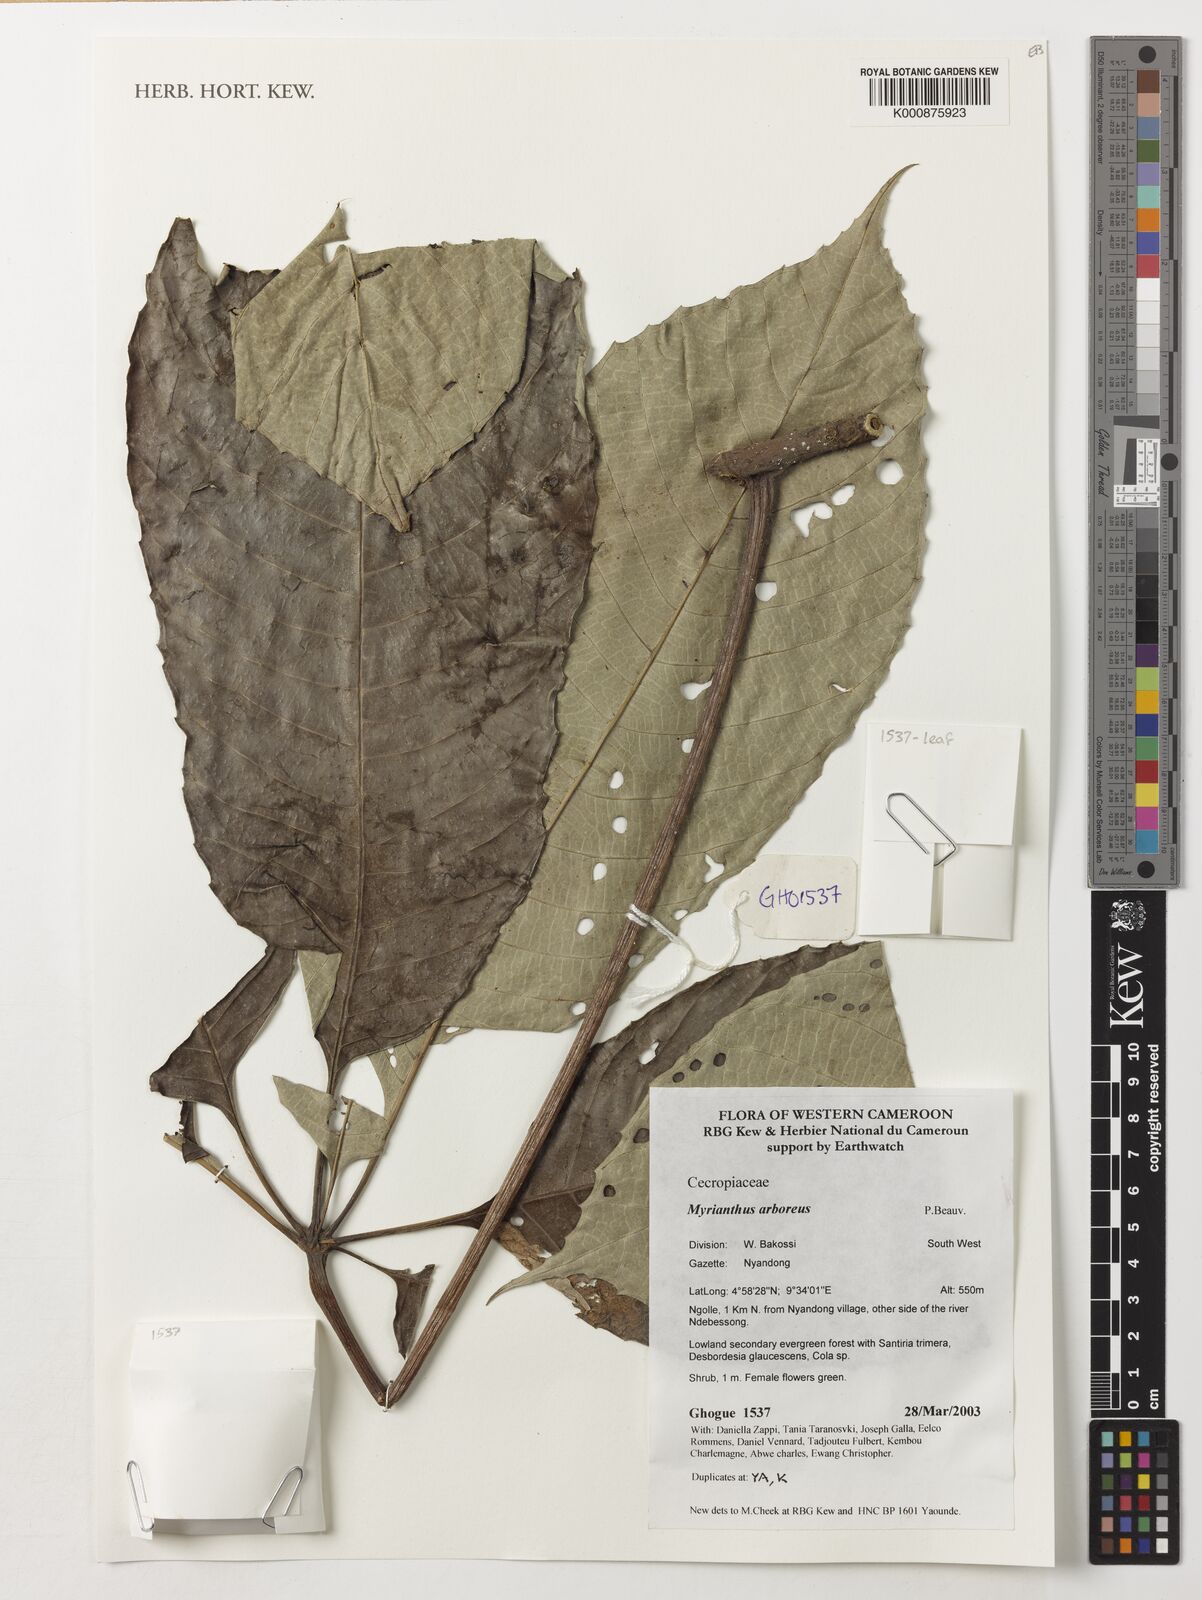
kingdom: Plantae
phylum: Tracheophyta
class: Magnoliopsida
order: Rosales
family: Urticaceae
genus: Myrianthus
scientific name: Myrianthus arboreus
